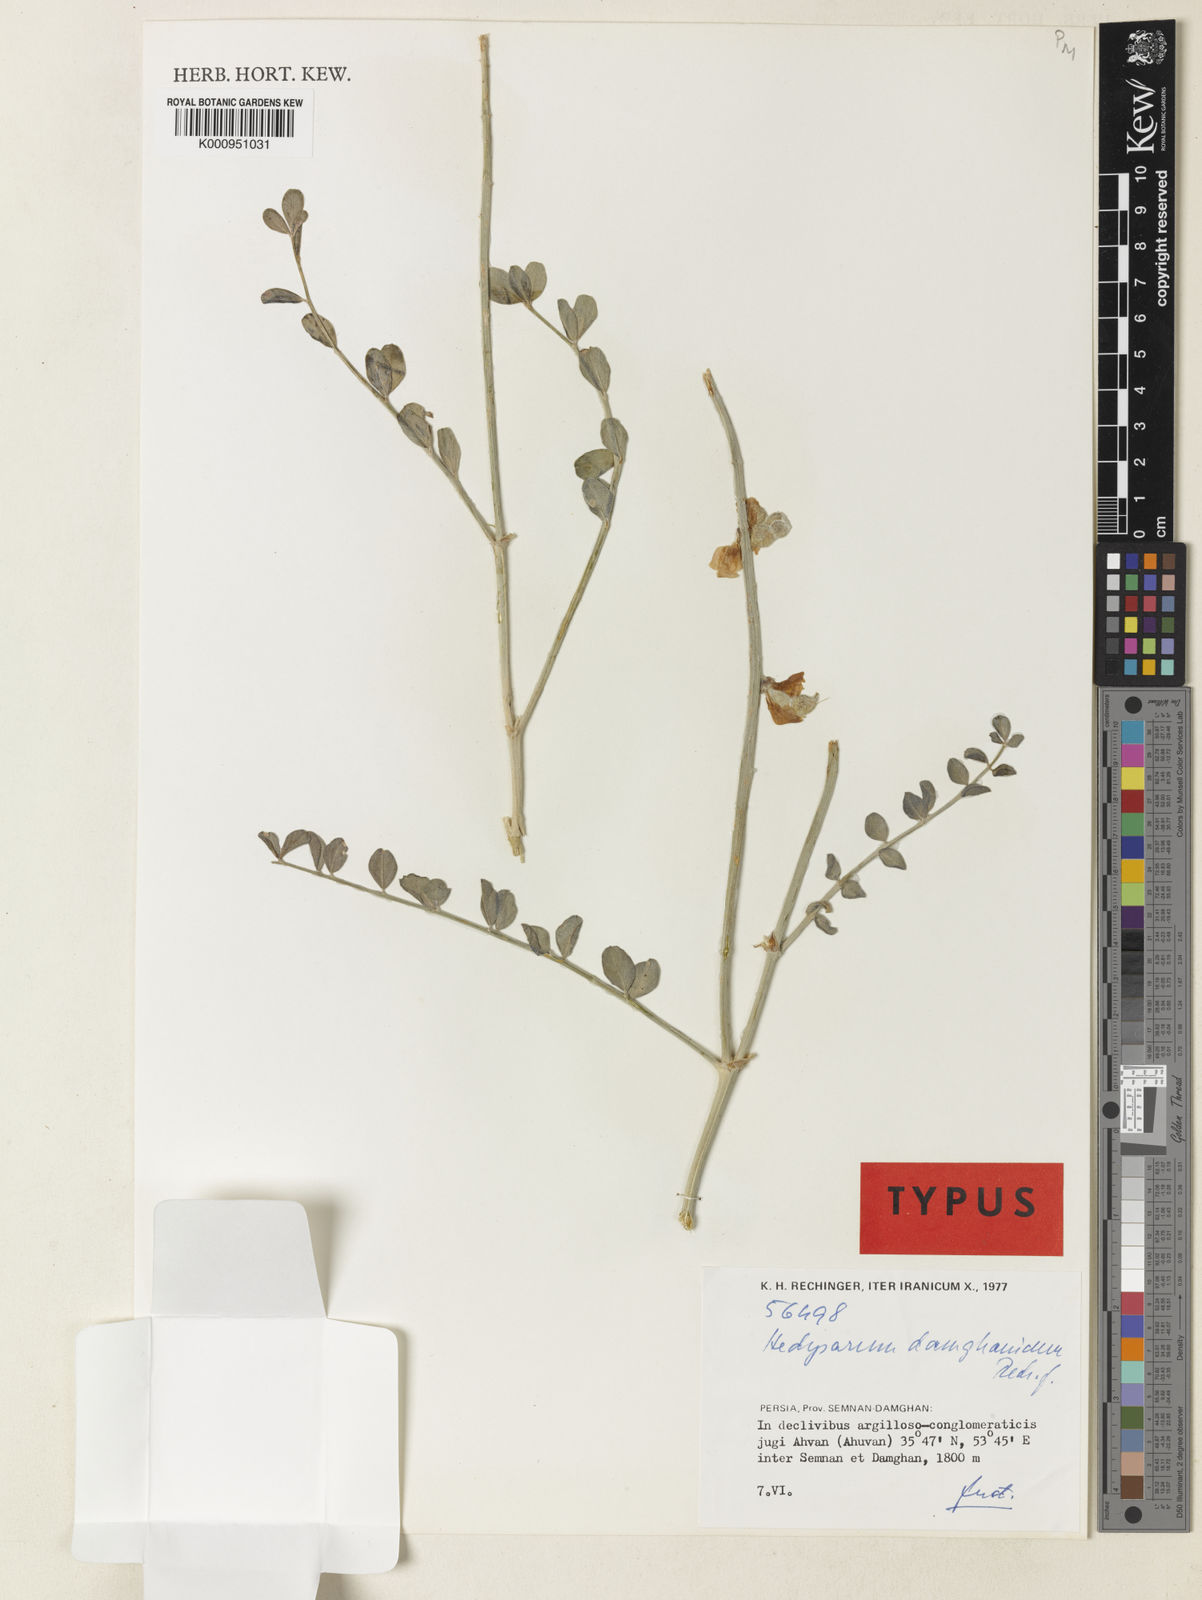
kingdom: Plantae
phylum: Tracheophyta
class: Magnoliopsida
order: Fabales
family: Fabaceae
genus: Hedysarum
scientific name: Hedysarum
